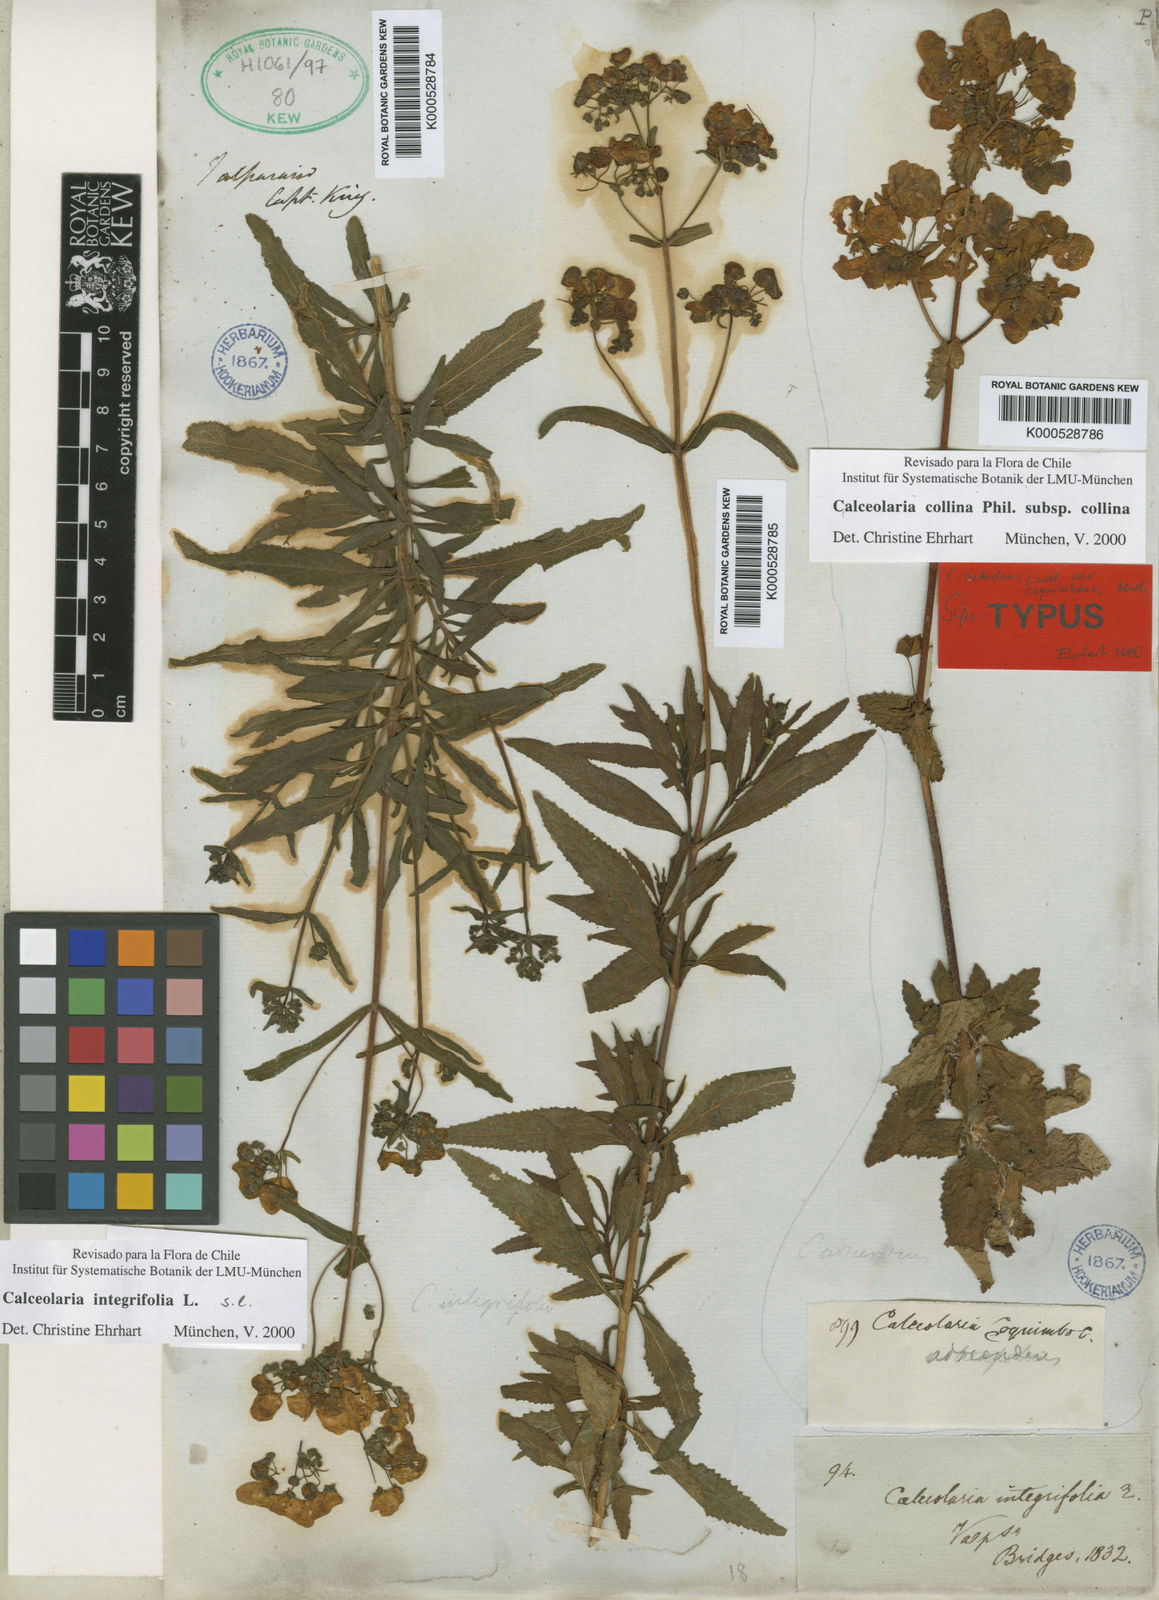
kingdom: Plantae
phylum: Tracheophyta
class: Magnoliopsida
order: Lamiales
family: Calceolariaceae
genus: Calceolaria
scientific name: Calceolaria collina
